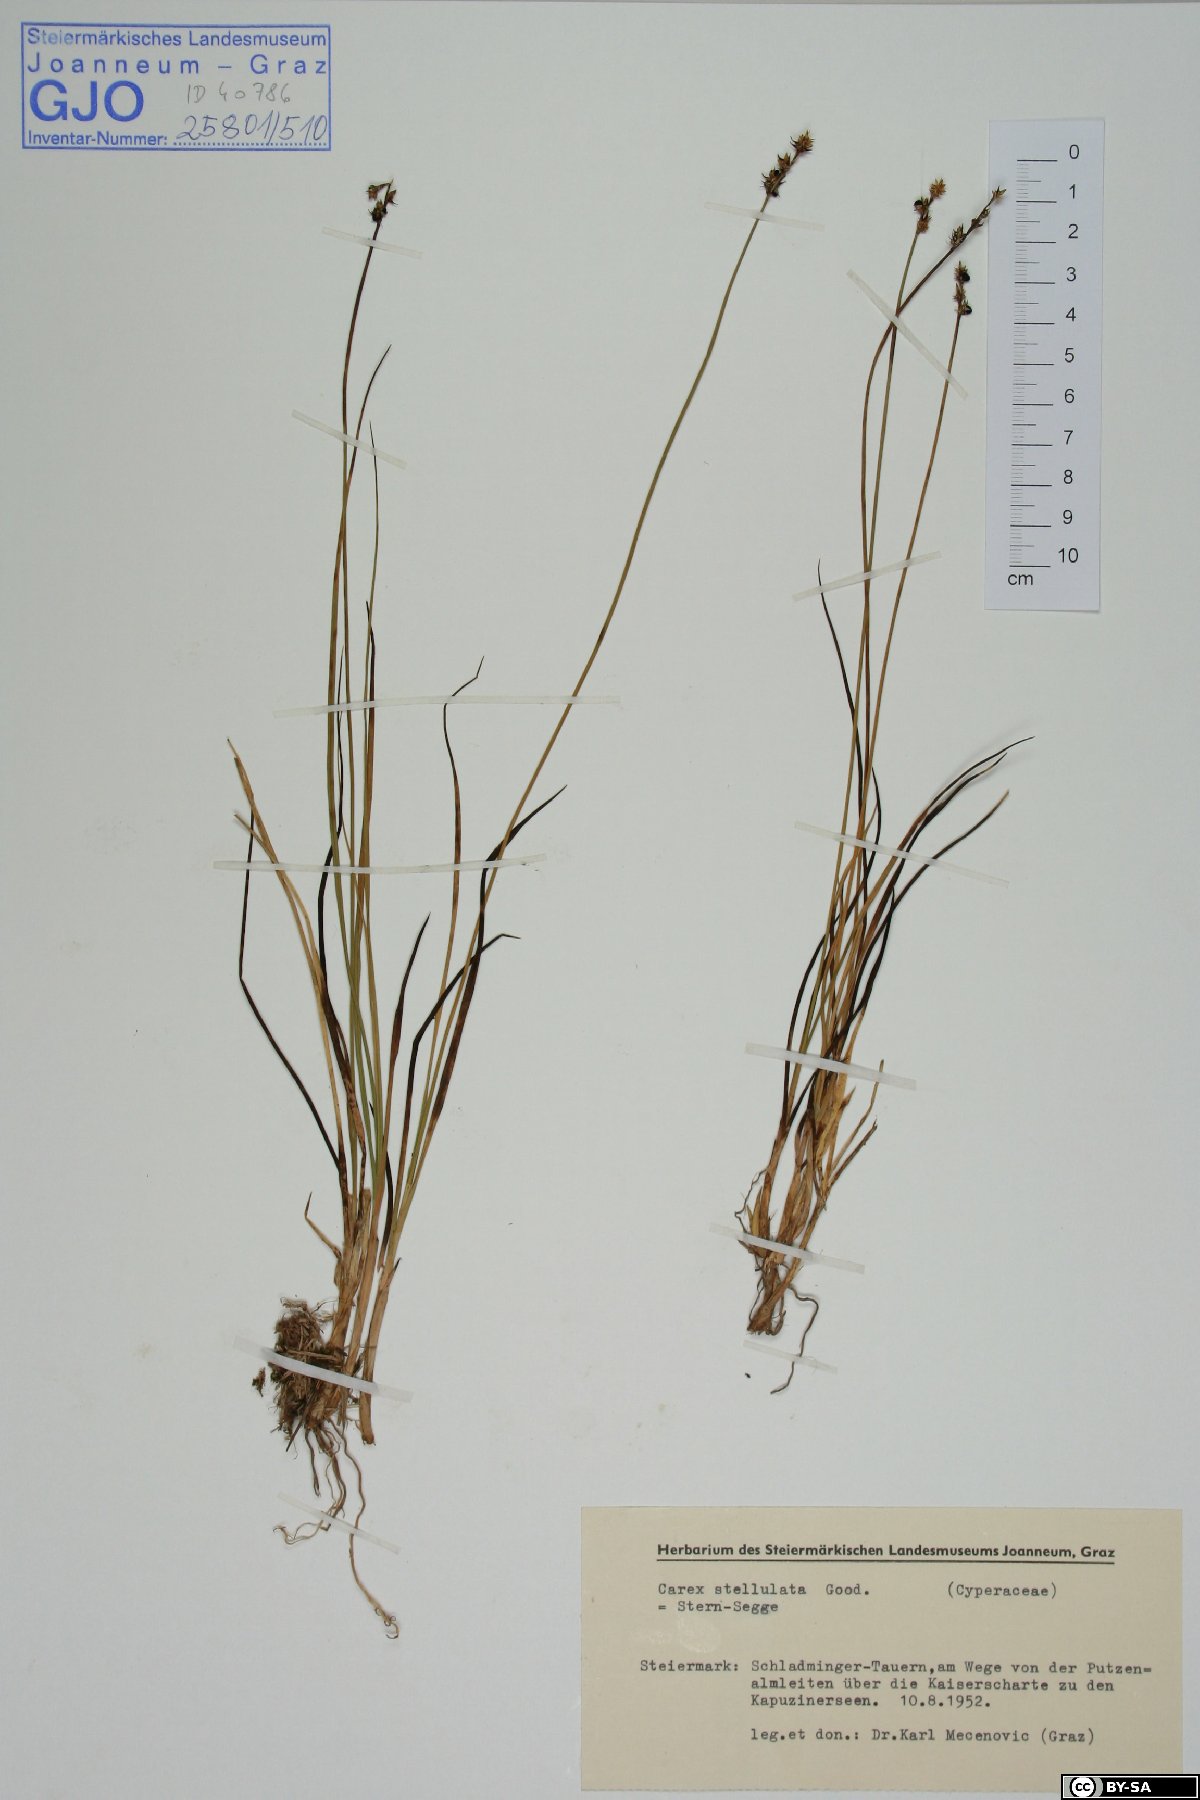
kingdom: Plantae
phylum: Tracheophyta
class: Liliopsida
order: Poales
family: Cyperaceae
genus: Carex
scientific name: Carex echinata
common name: Star sedge
